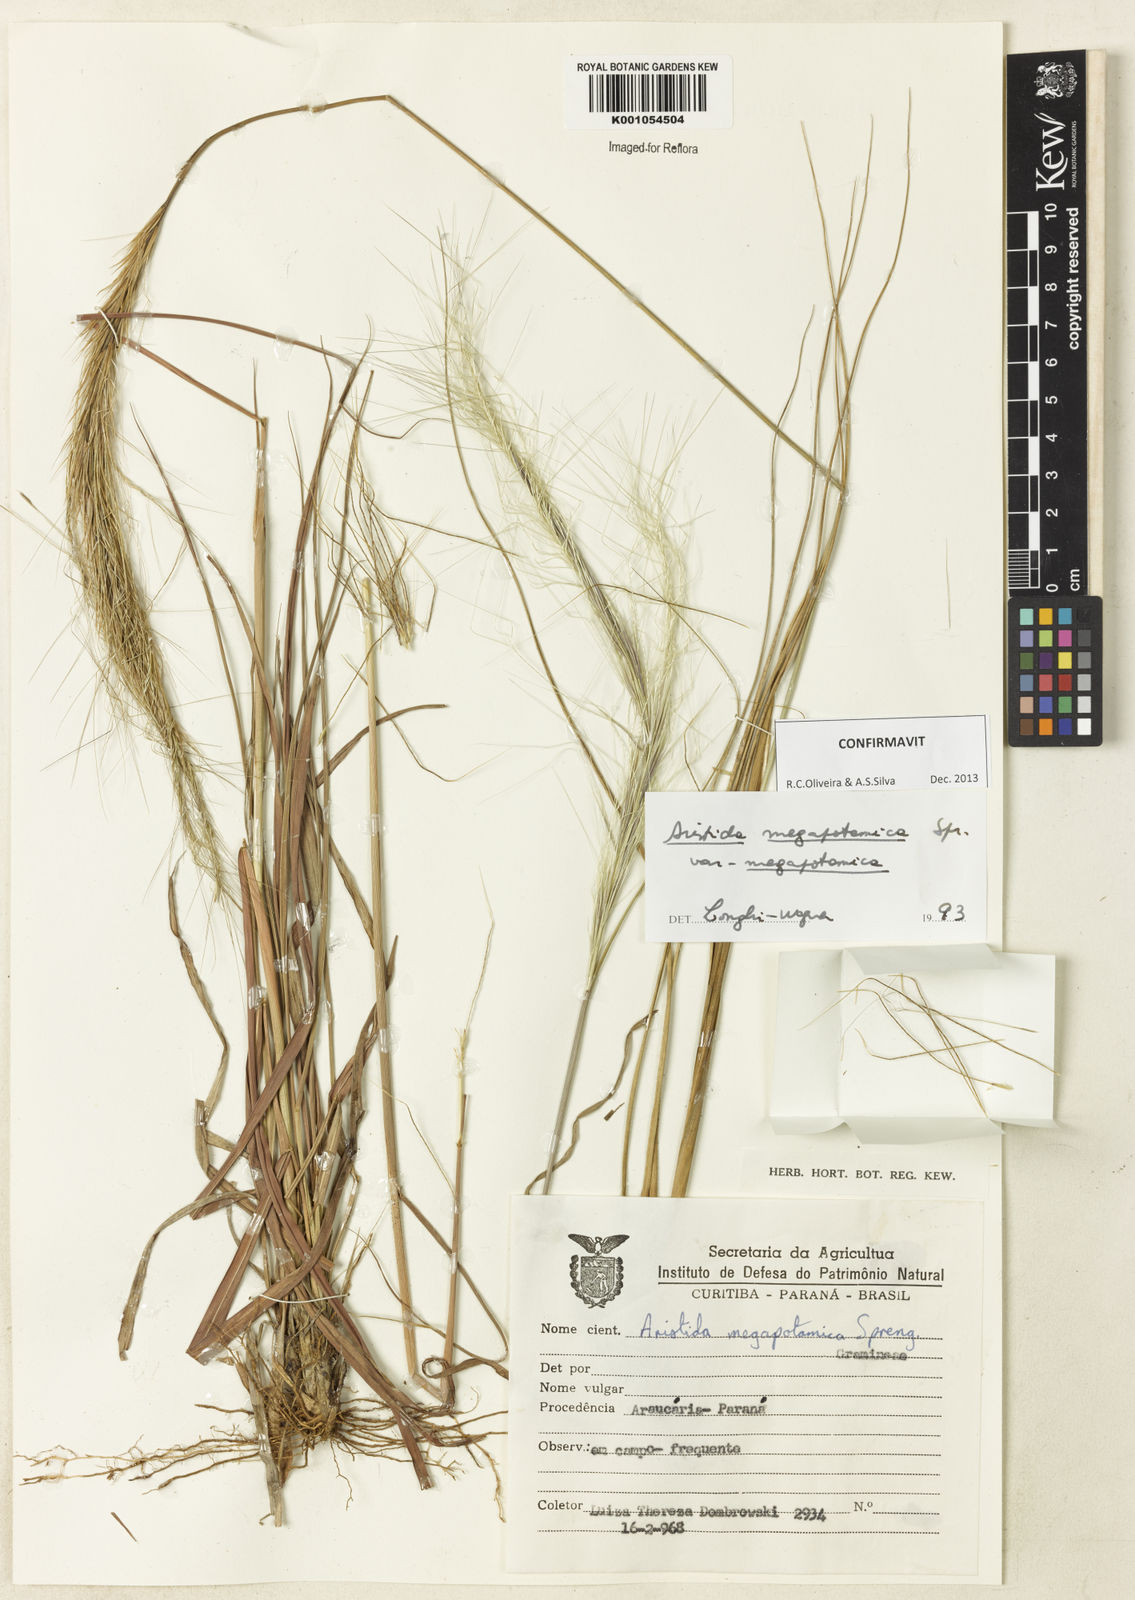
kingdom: Plantae
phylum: Tracheophyta
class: Liliopsida
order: Poales
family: Poaceae
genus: Aristida
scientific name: Aristida megapotamica
